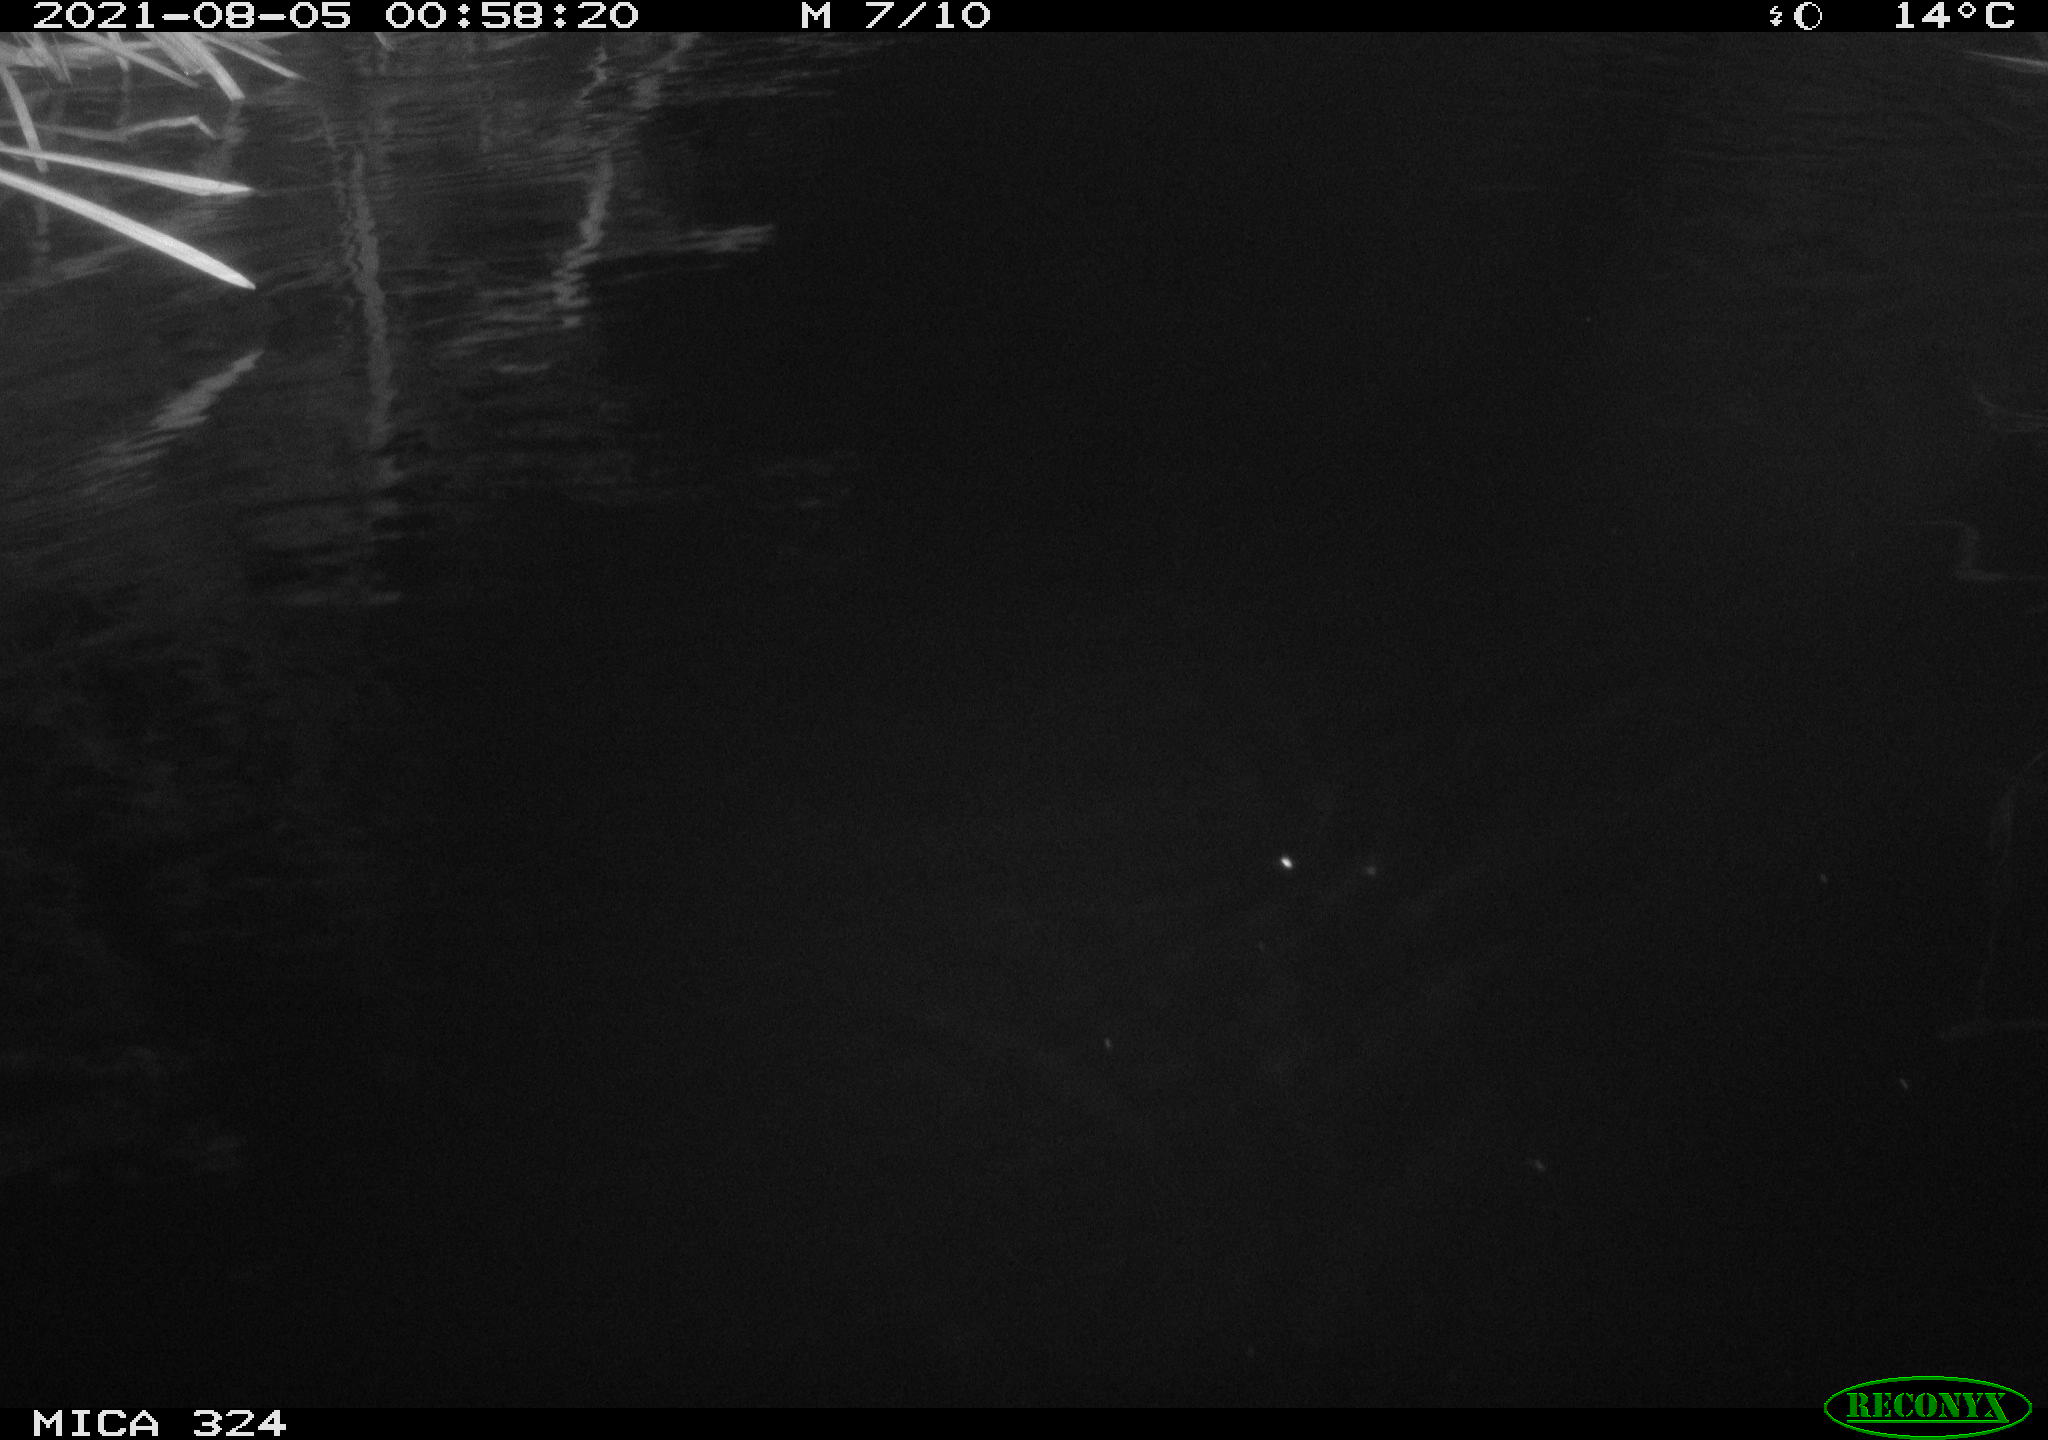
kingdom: Animalia
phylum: Chordata
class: Mammalia
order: Rodentia
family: Cricetidae
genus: Ondatra
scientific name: Ondatra zibethicus
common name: Muskrat
